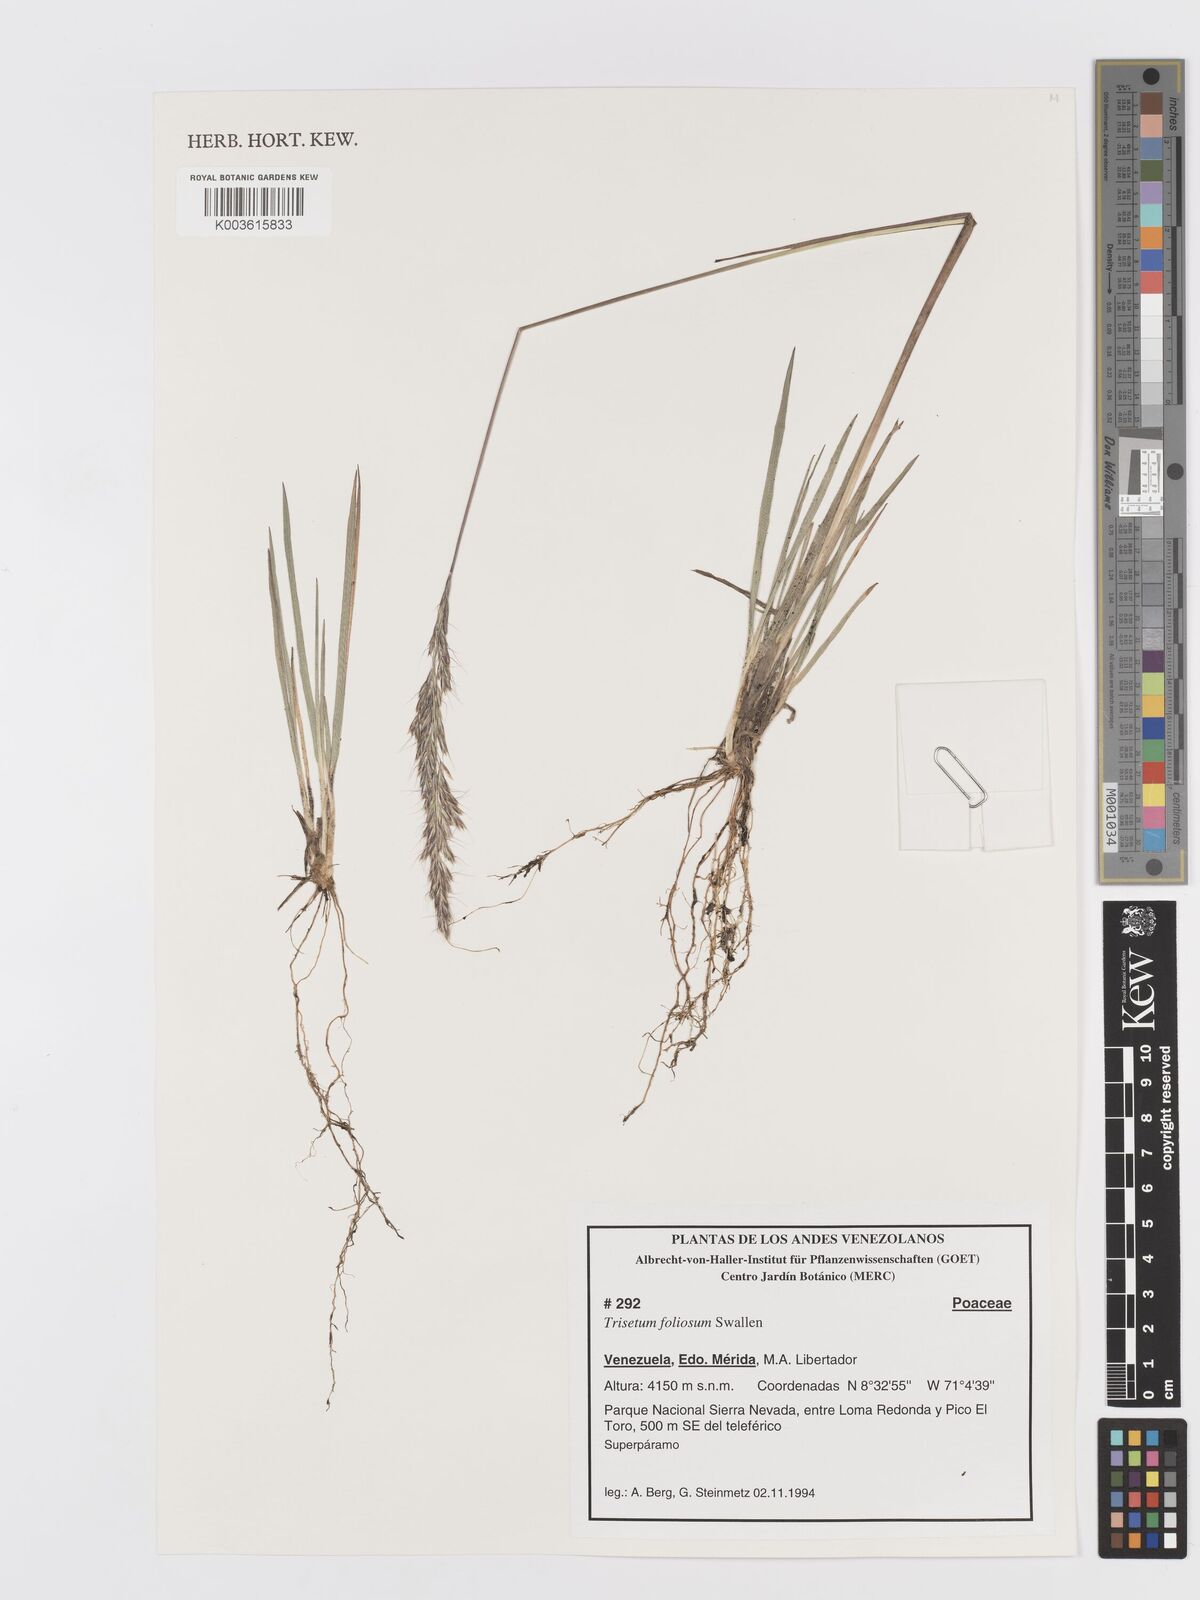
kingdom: Plantae
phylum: Tracheophyta
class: Liliopsida
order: Poales
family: Poaceae
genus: Peyritschia
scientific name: Peyritschia foliosa
